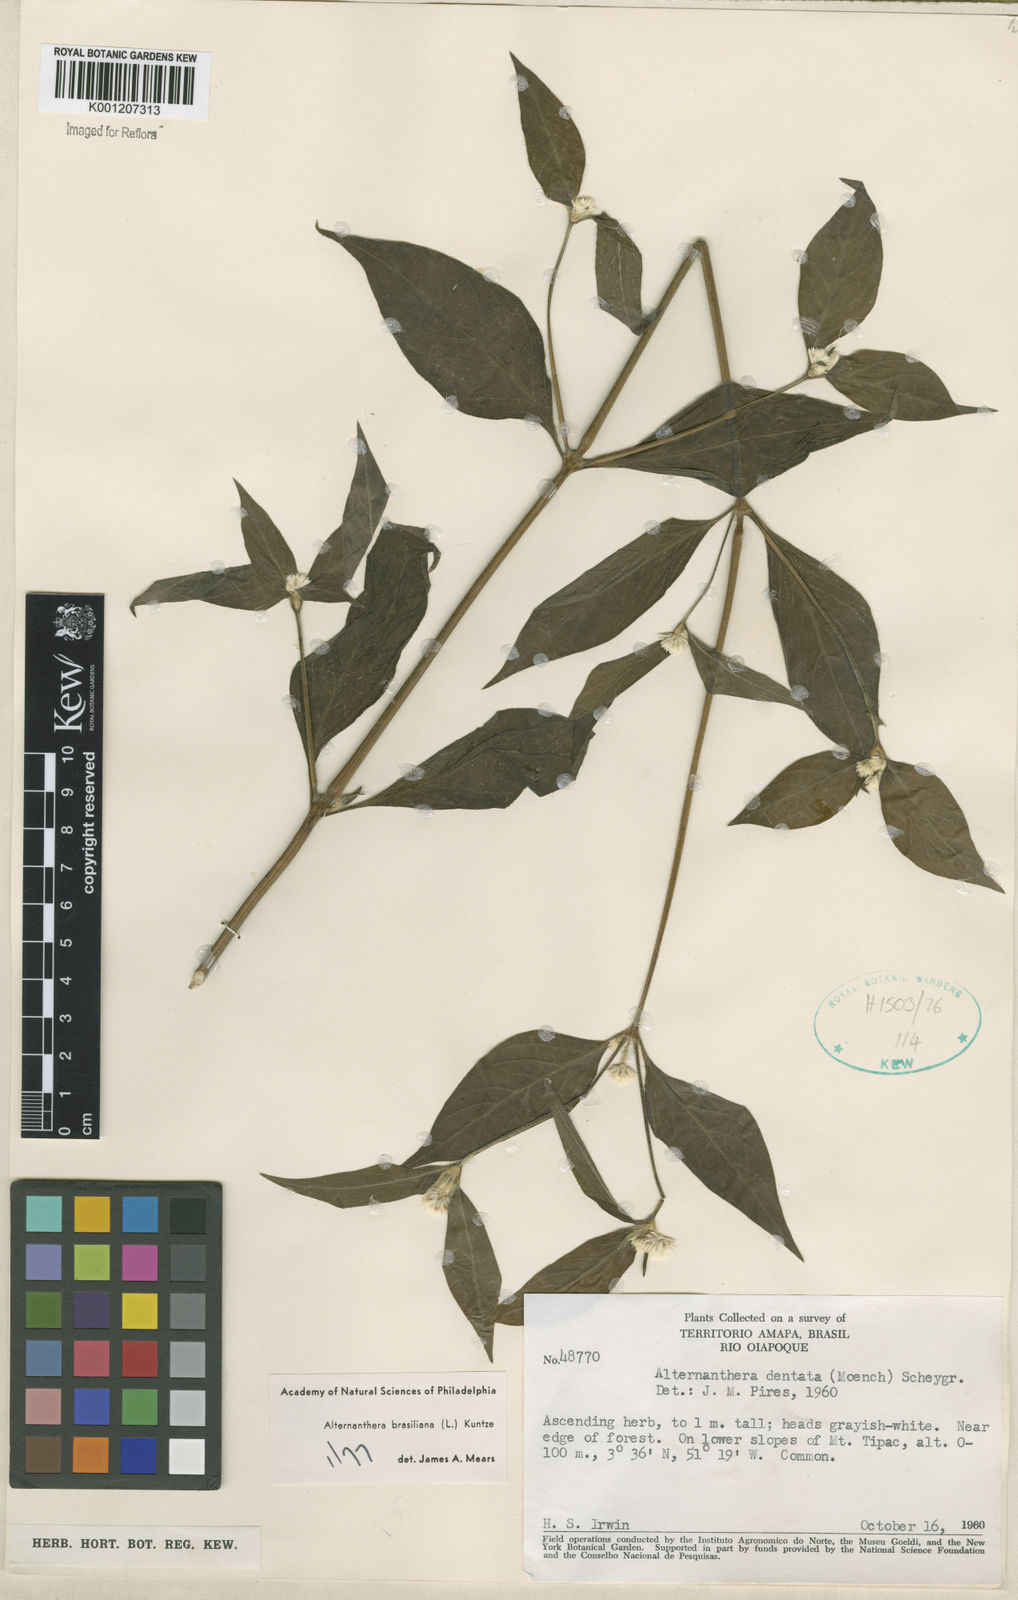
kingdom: Plantae
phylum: Tracheophyta
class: Magnoliopsida
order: Caryophyllales
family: Amaranthaceae
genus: Alternanthera
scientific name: Alternanthera brasiliana
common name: Brazilian joyweed
